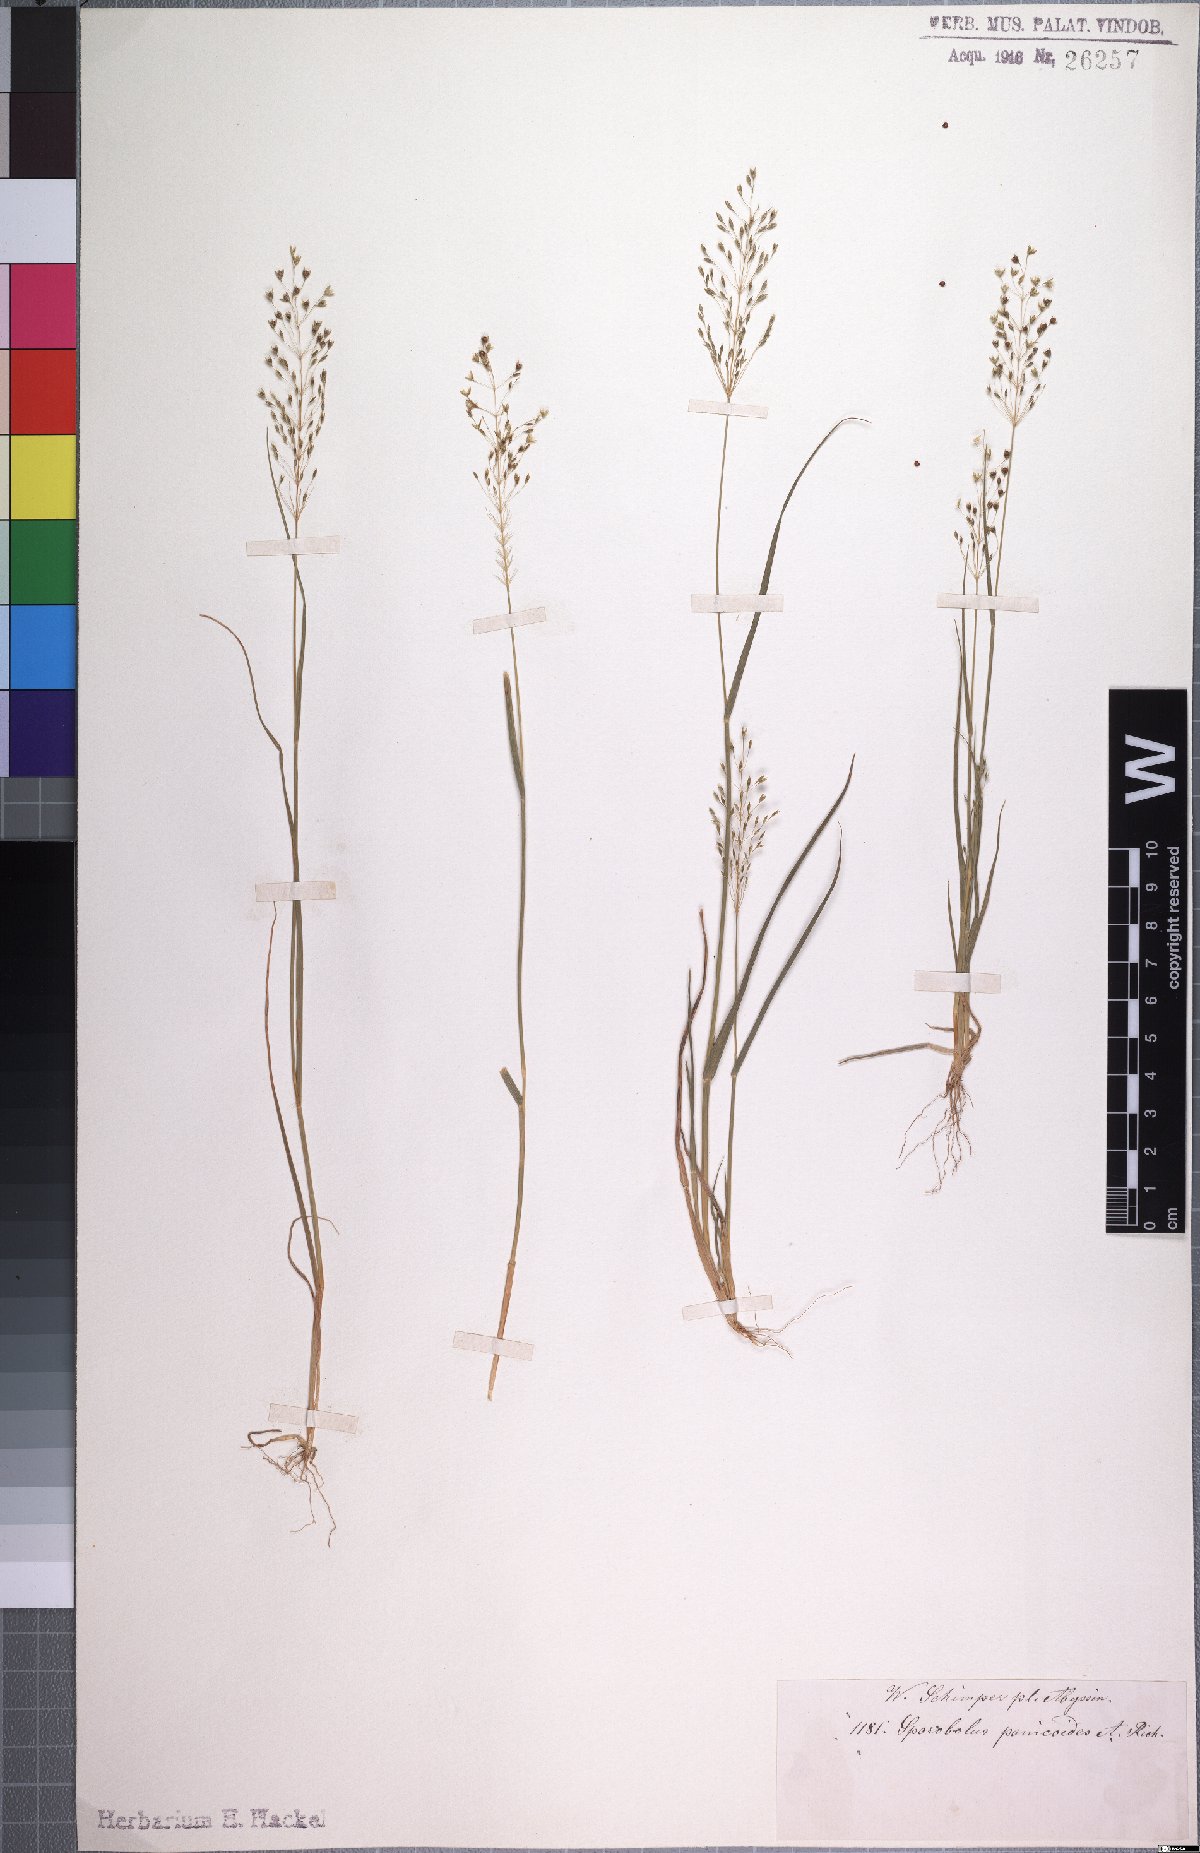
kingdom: Plantae
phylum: Tracheophyta
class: Liliopsida
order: Poales
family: Poaceae
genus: Sporobolus
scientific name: Sporobolus panicoides
